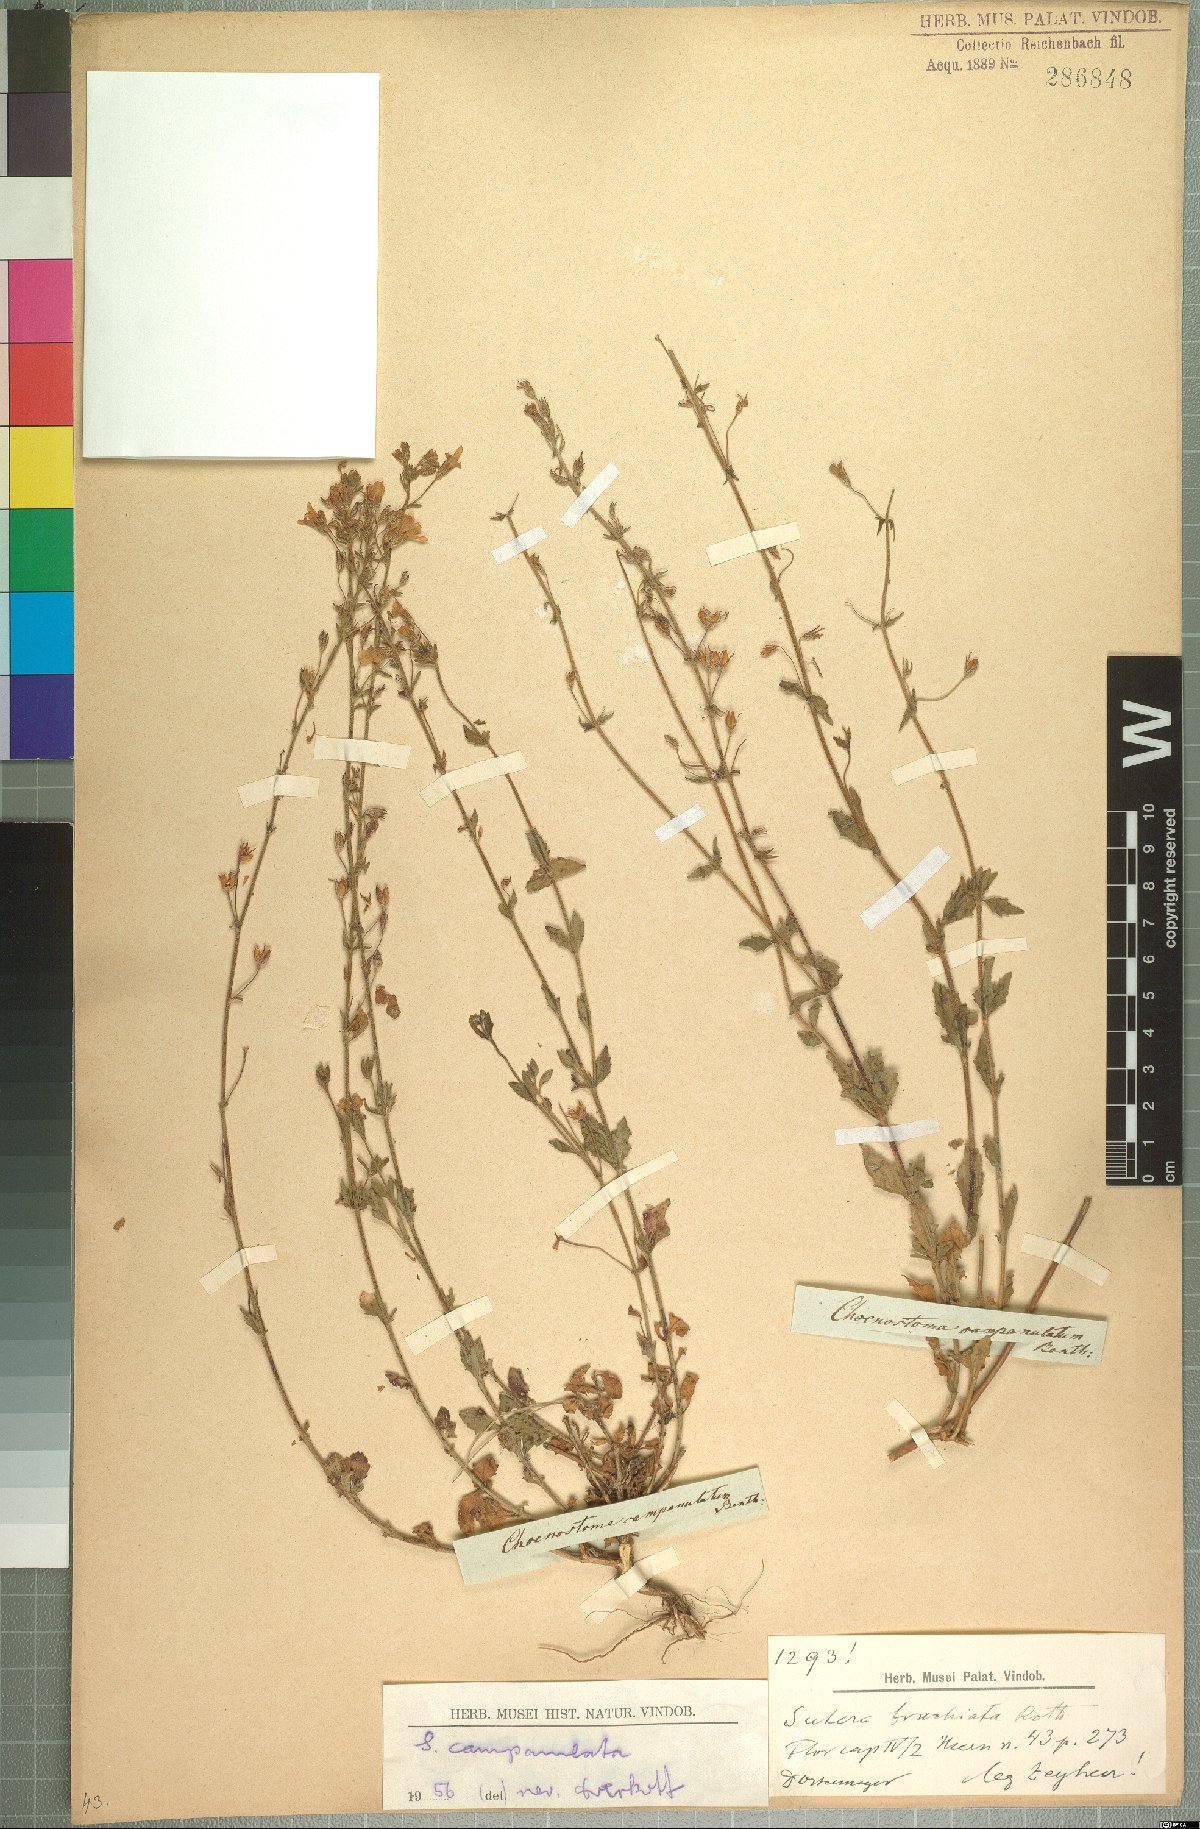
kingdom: Plantae
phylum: Tracheophyta
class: Magnoliopsida
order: Lamiales
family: Scrophulariaceae
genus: Chaenostoma
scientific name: Chaenostoma campanulatum
